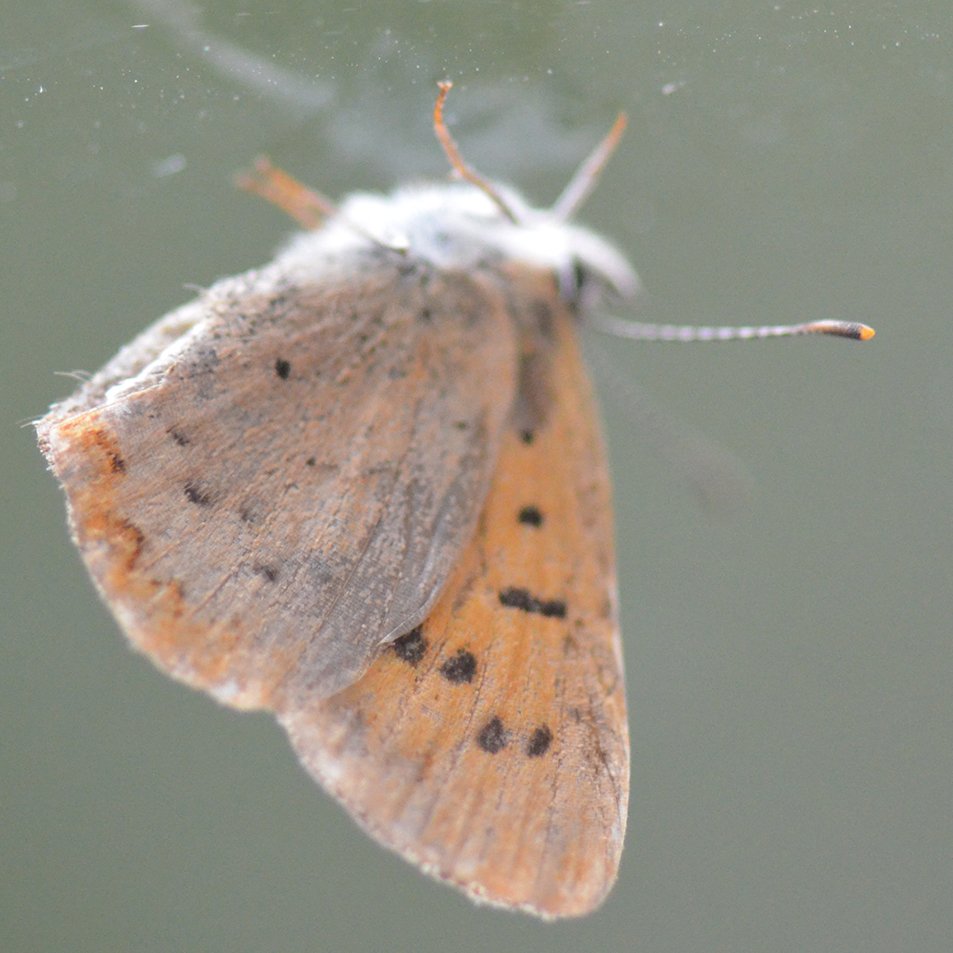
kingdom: Animalia
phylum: Arthropoda
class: Insecta
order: Lepidoptera
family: Lycaenidae
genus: Epidemia
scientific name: Epidemia dorcas
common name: Dorcas Copper
